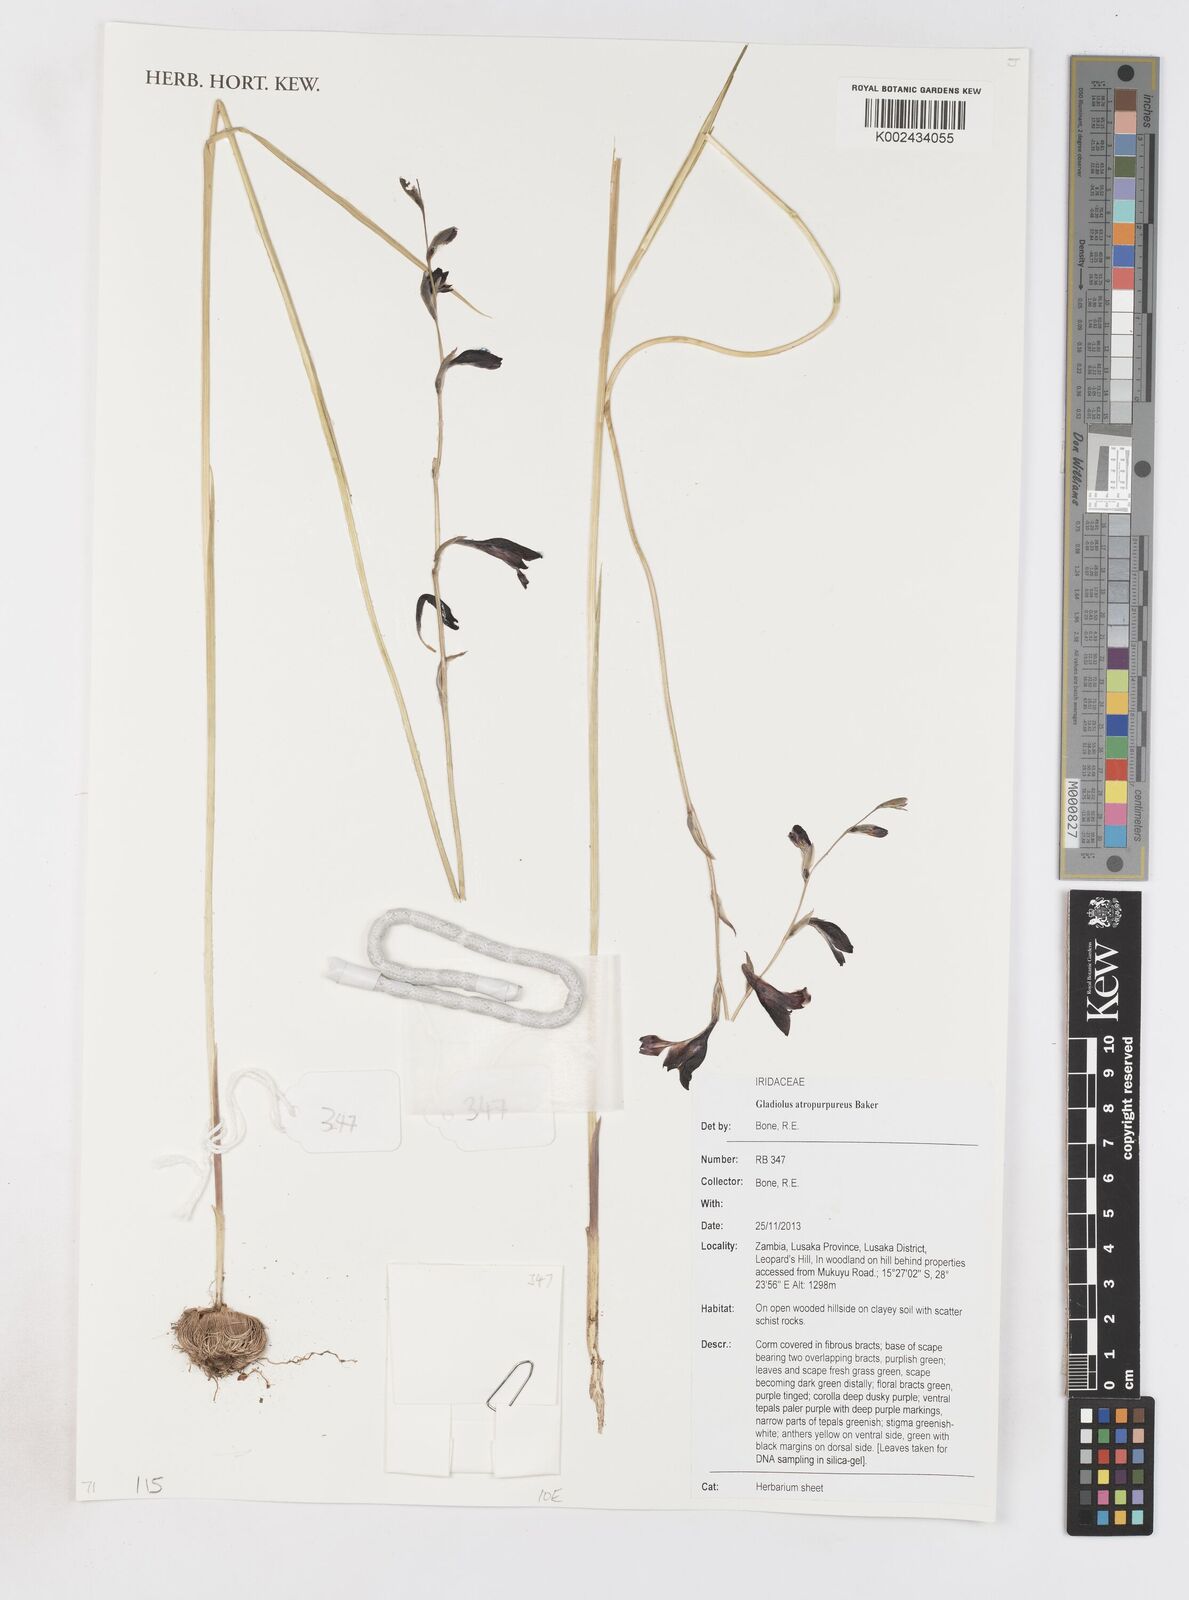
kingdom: Plantae
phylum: Tracheophyta
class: Liliopsida
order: Asparagales
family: Iridaceae
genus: Gladiolus
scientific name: Gladiolus atropurpureus
